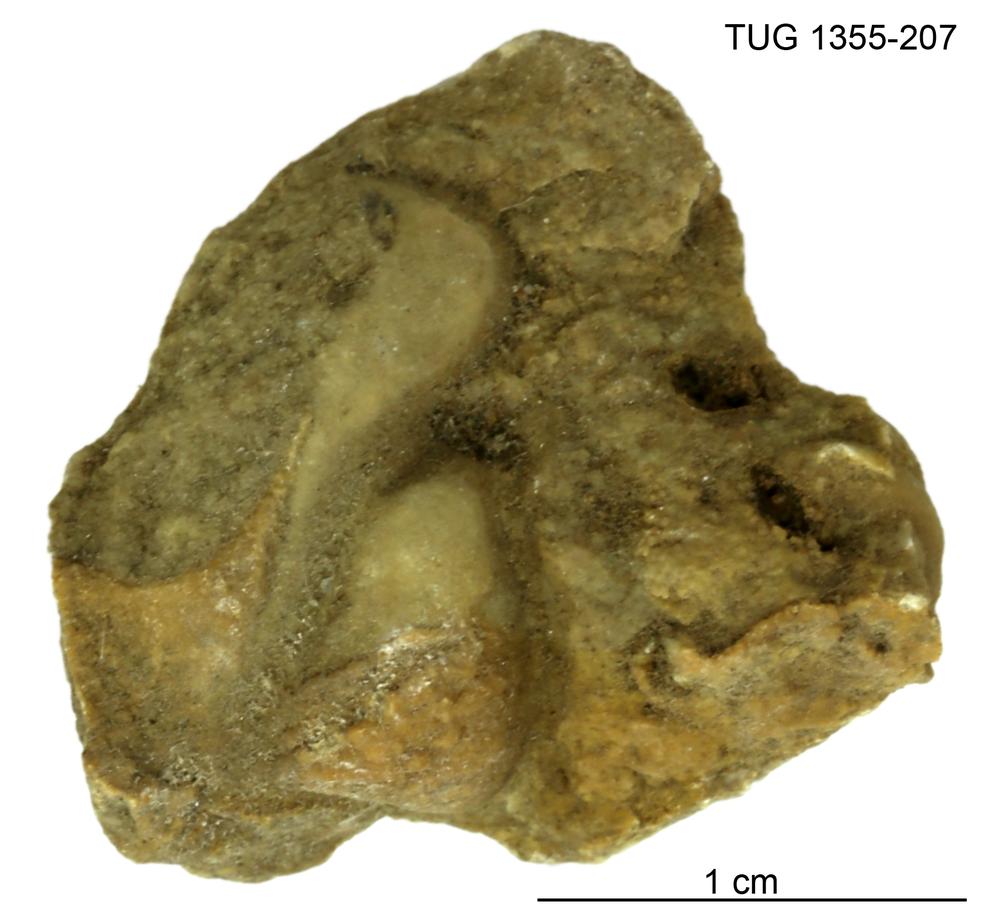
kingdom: Animalia
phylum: Arthropoda
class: Trilobita
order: Phacopida
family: Pterygometopidae
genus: Chasmops
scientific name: Chasmops macrourus
